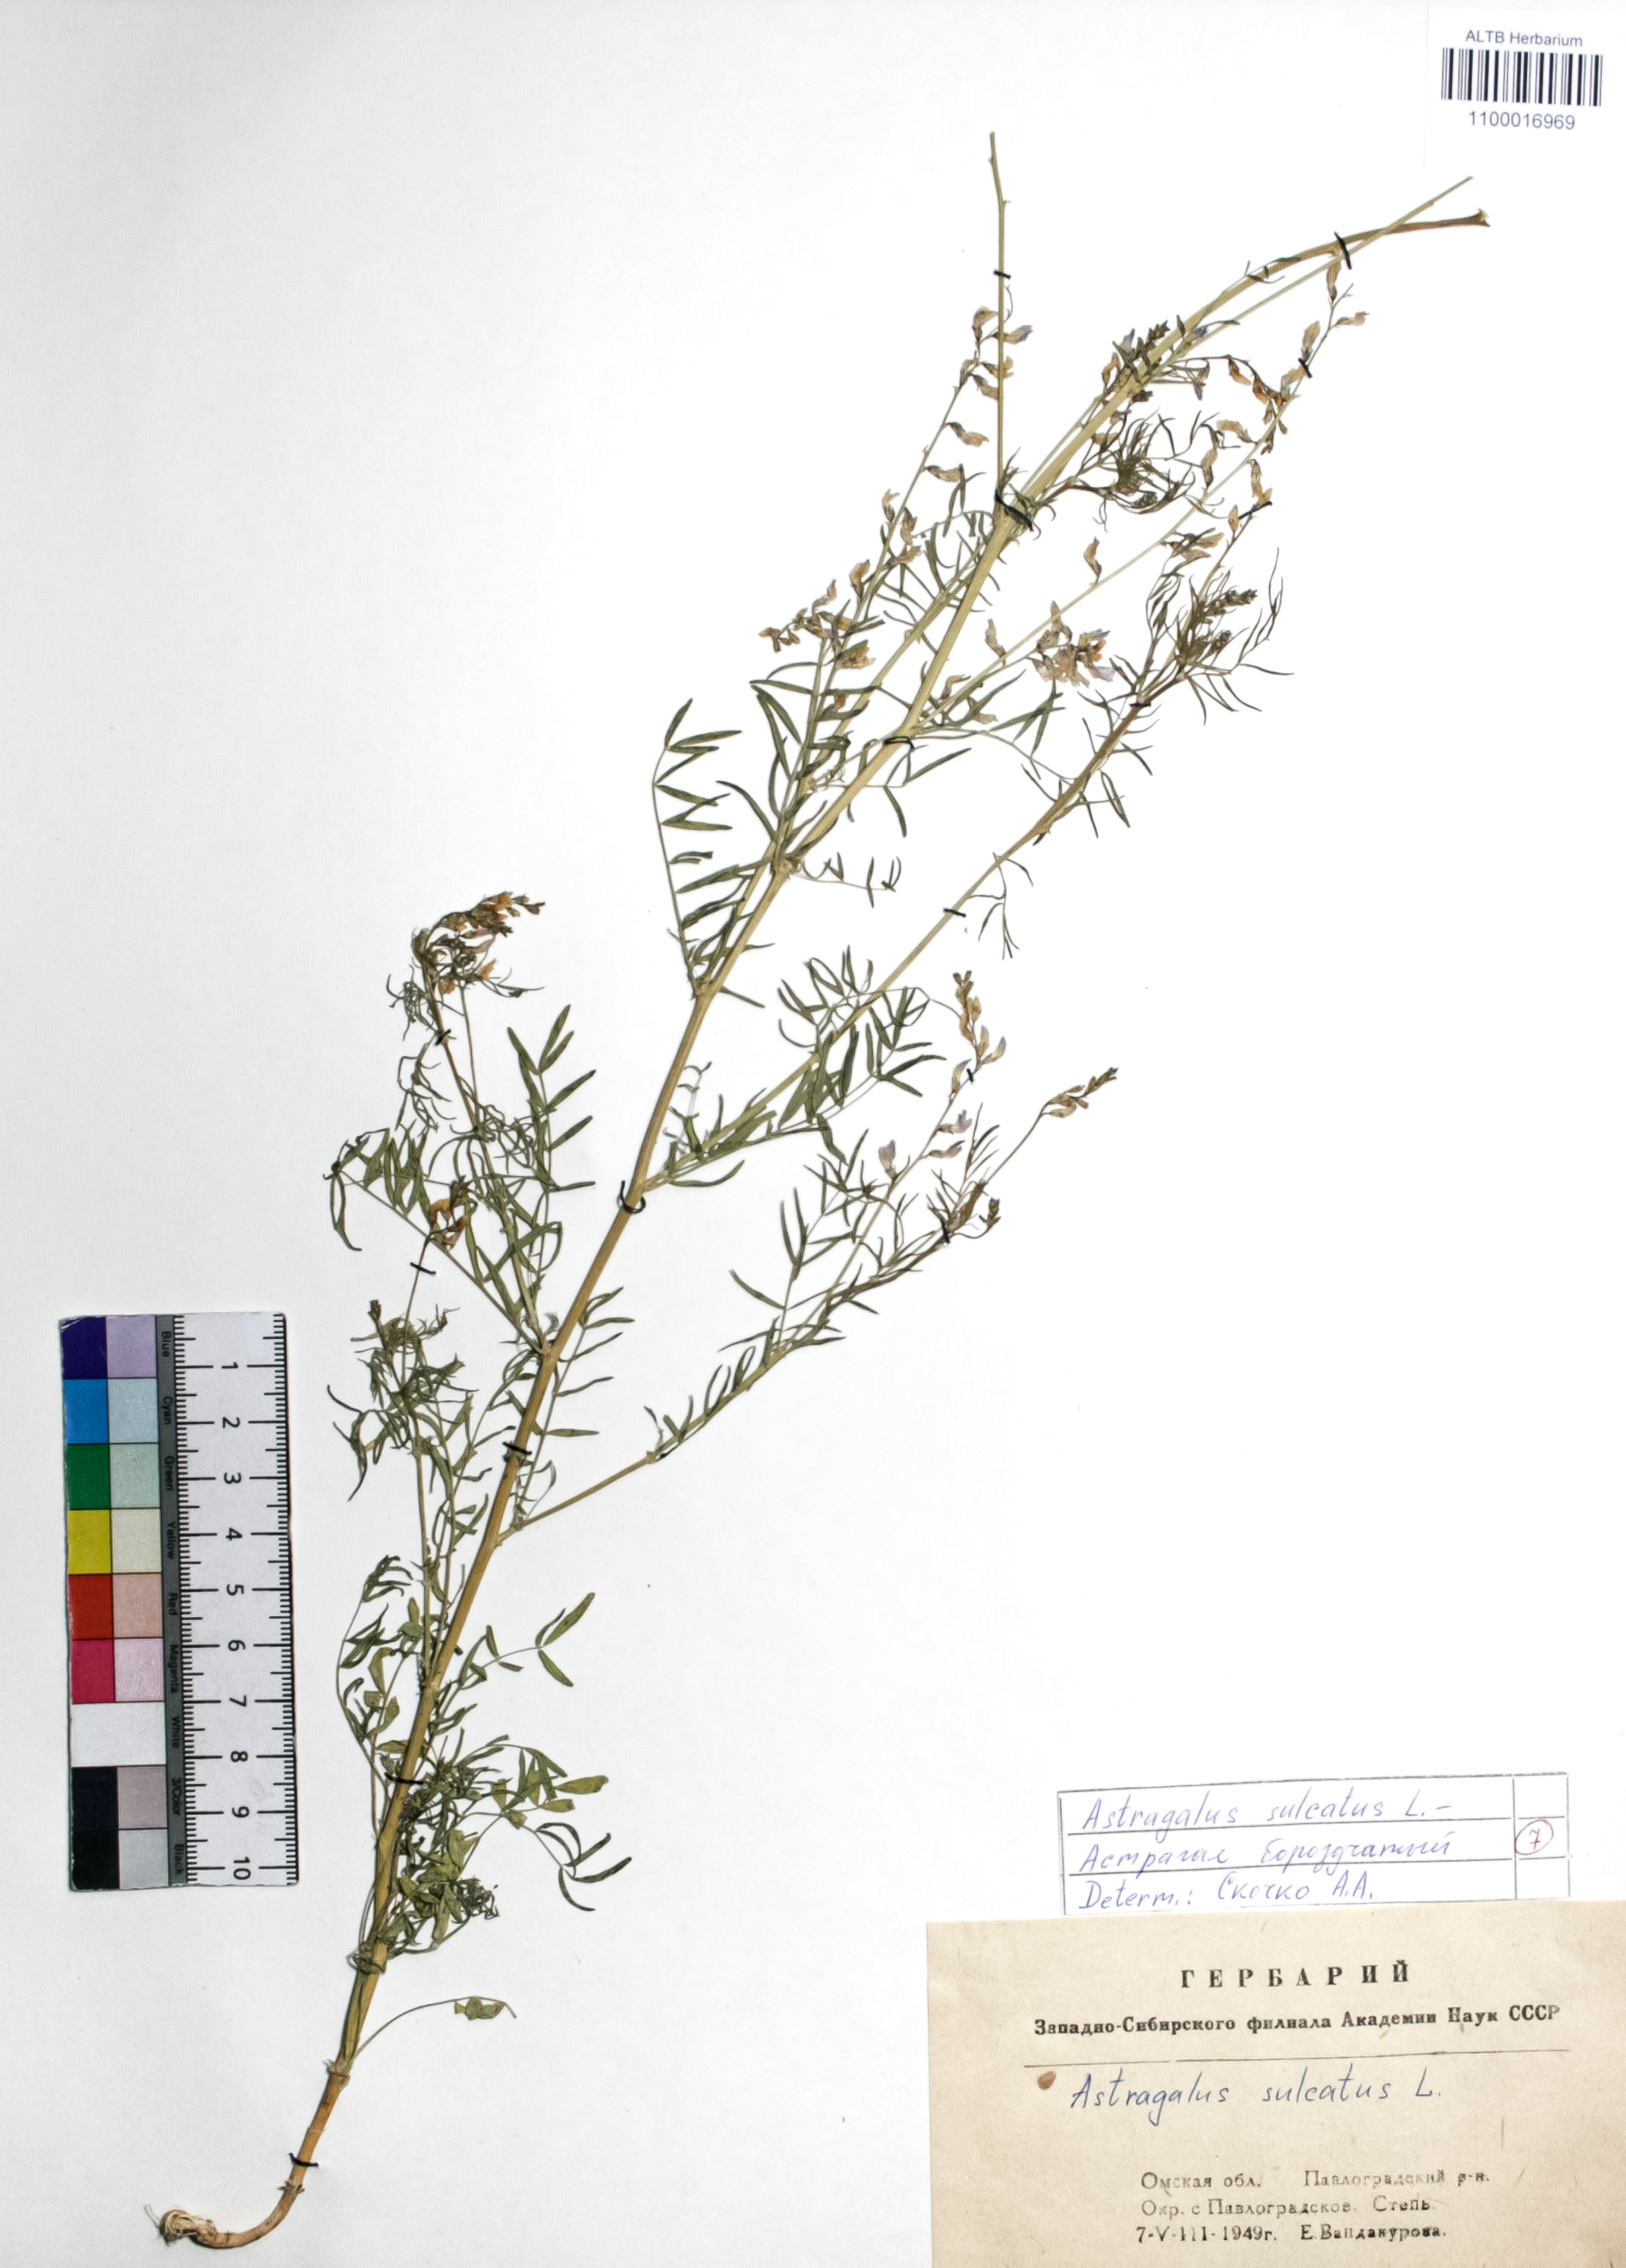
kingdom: Plantae
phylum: Tracheophyta
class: Magnoliopsida
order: Fabales
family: Fabaceae
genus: Astragalus
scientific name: Astragalus sulcatus
